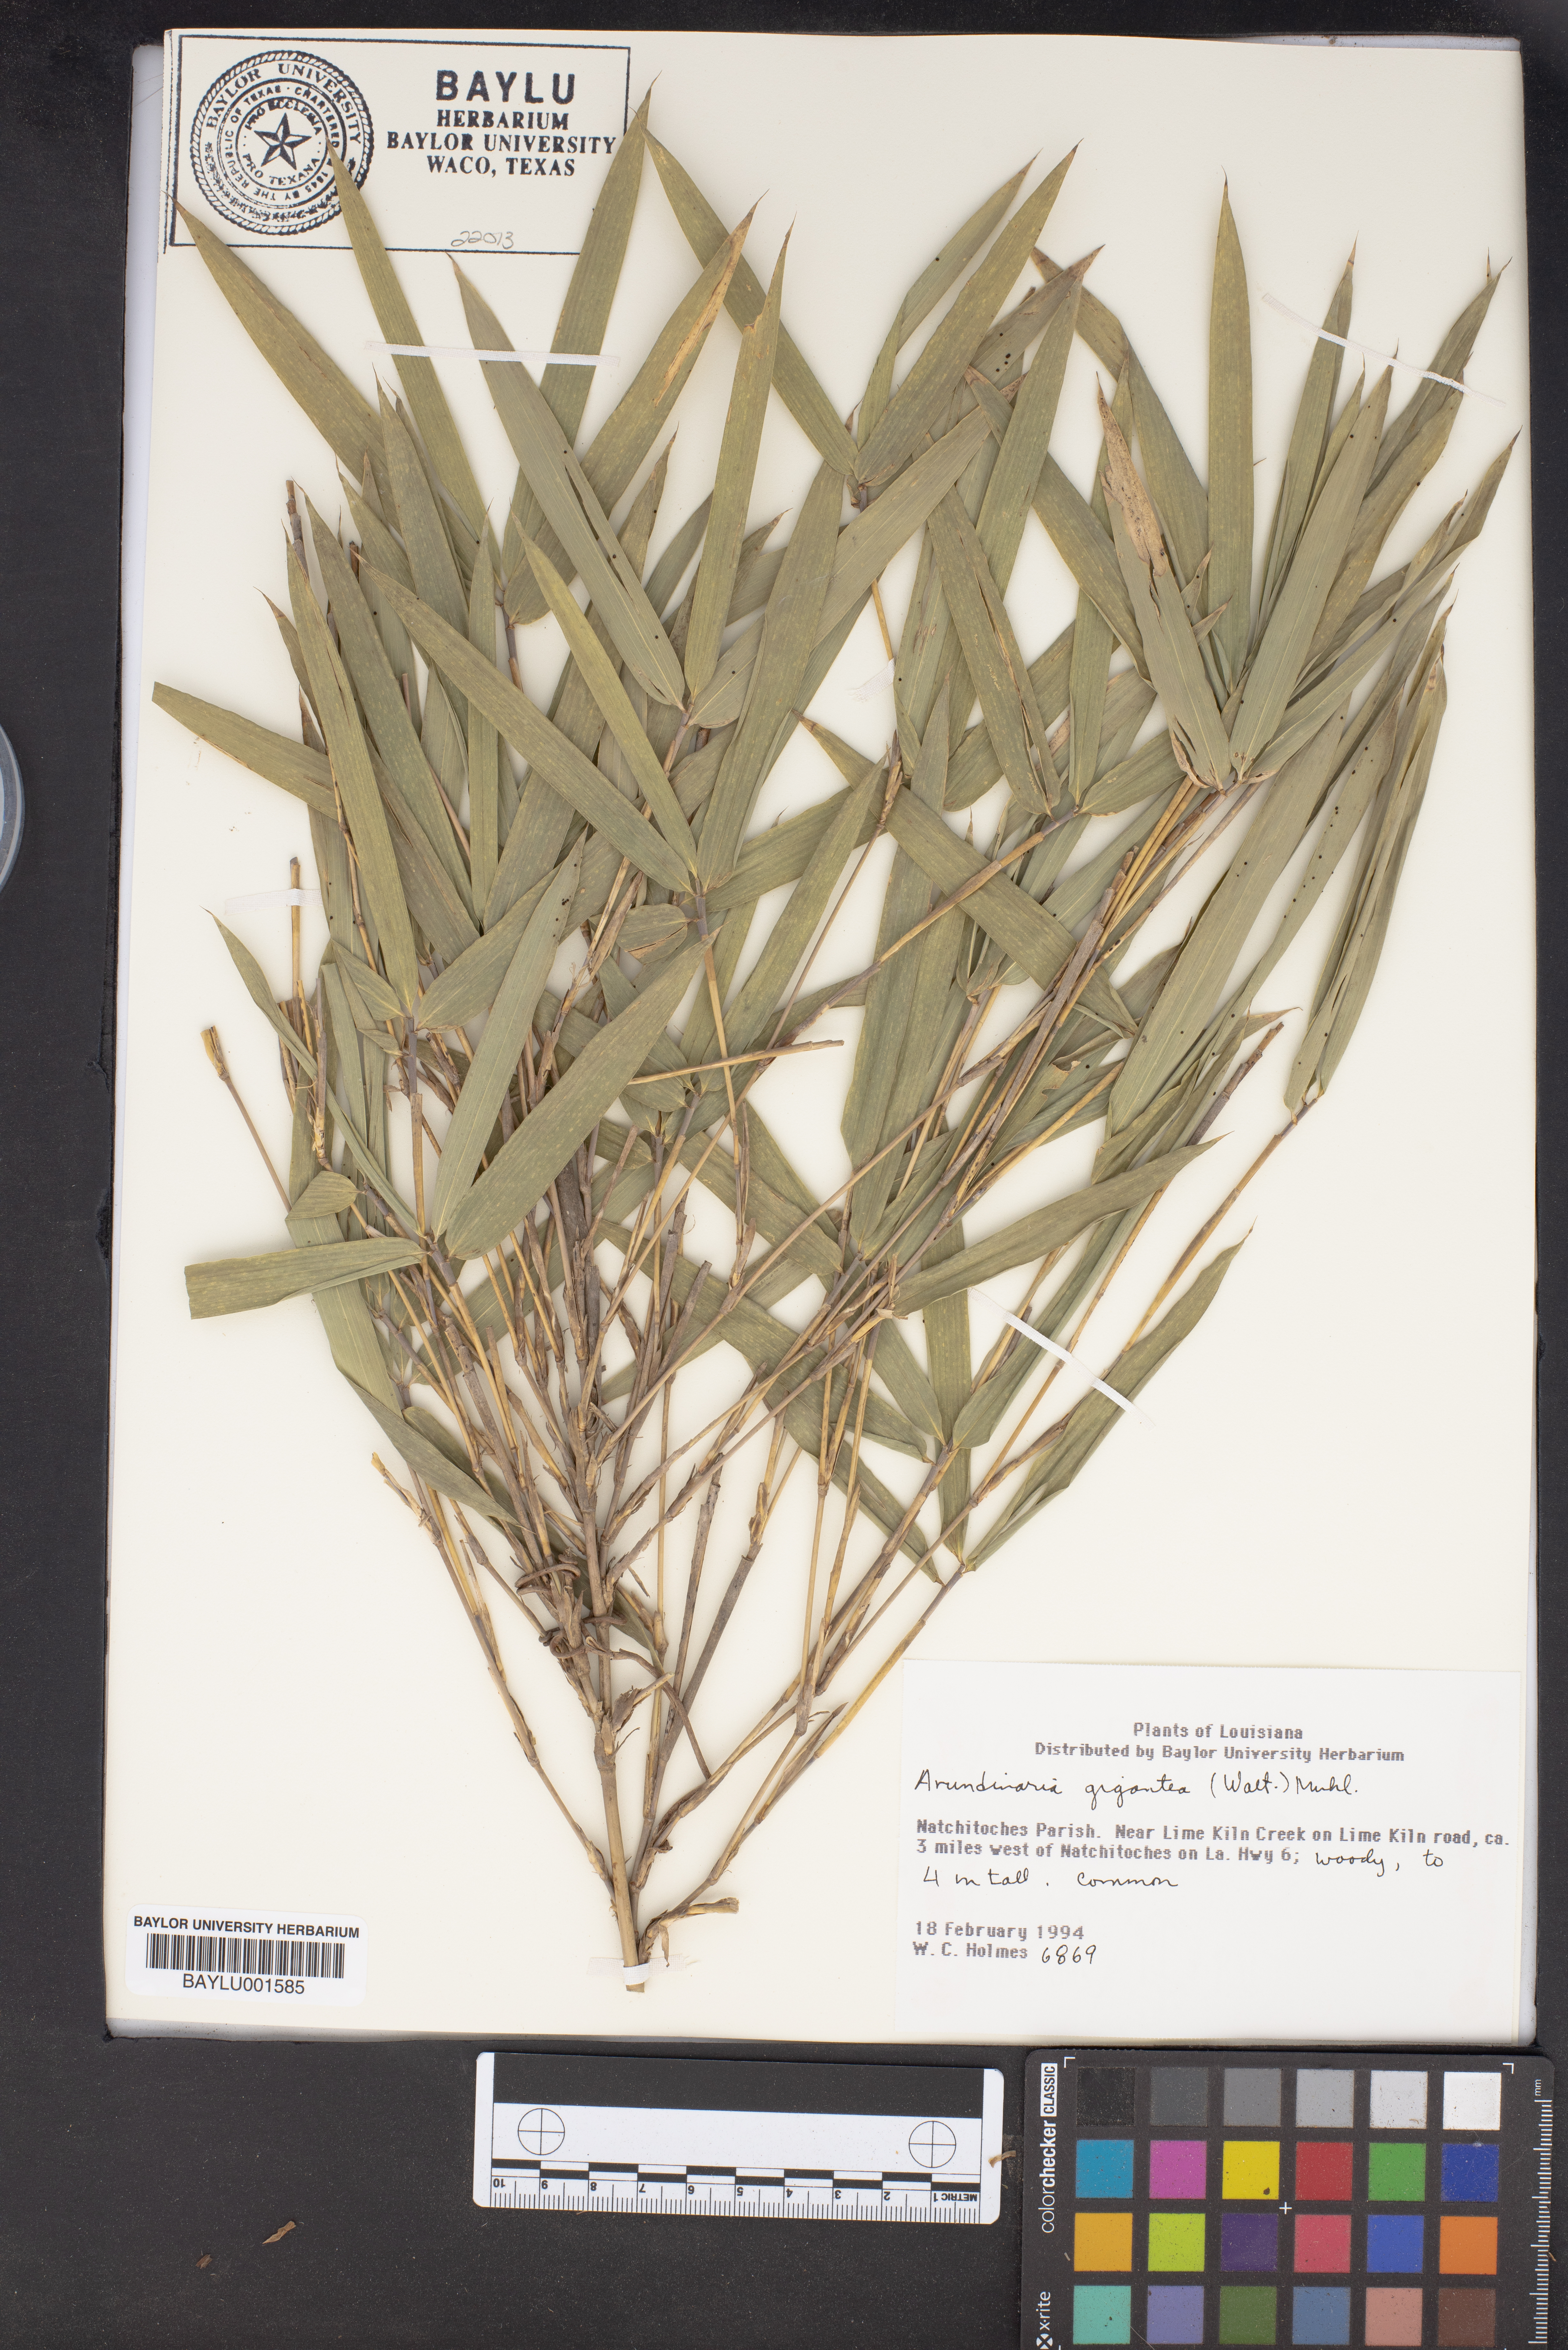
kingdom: Plantae
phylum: Tracheophyta
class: Liliopsida
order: Poales
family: Poaceae
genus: Arundinaria
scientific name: Arundinaria gigantea
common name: Giant cane
